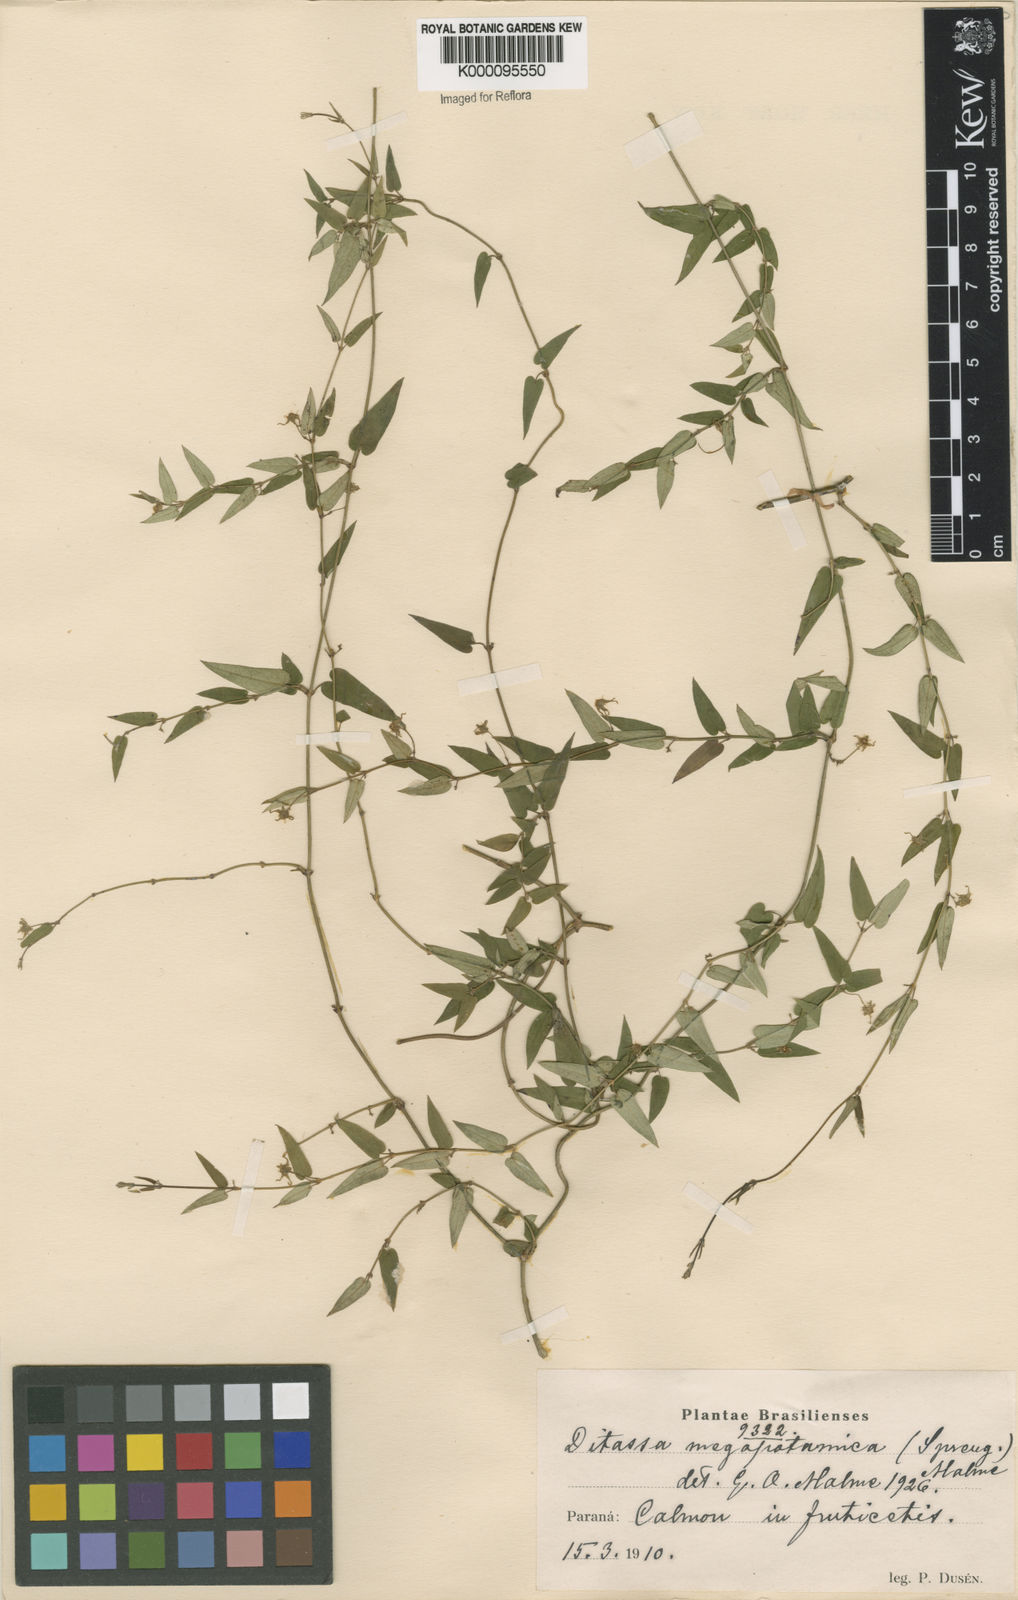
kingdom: Plantae
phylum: Tracheophyta
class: Magnoliopsida
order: Gentianales
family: Apocynaceae
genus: Oxypetalum
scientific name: Oxypetalum megapotamicum
